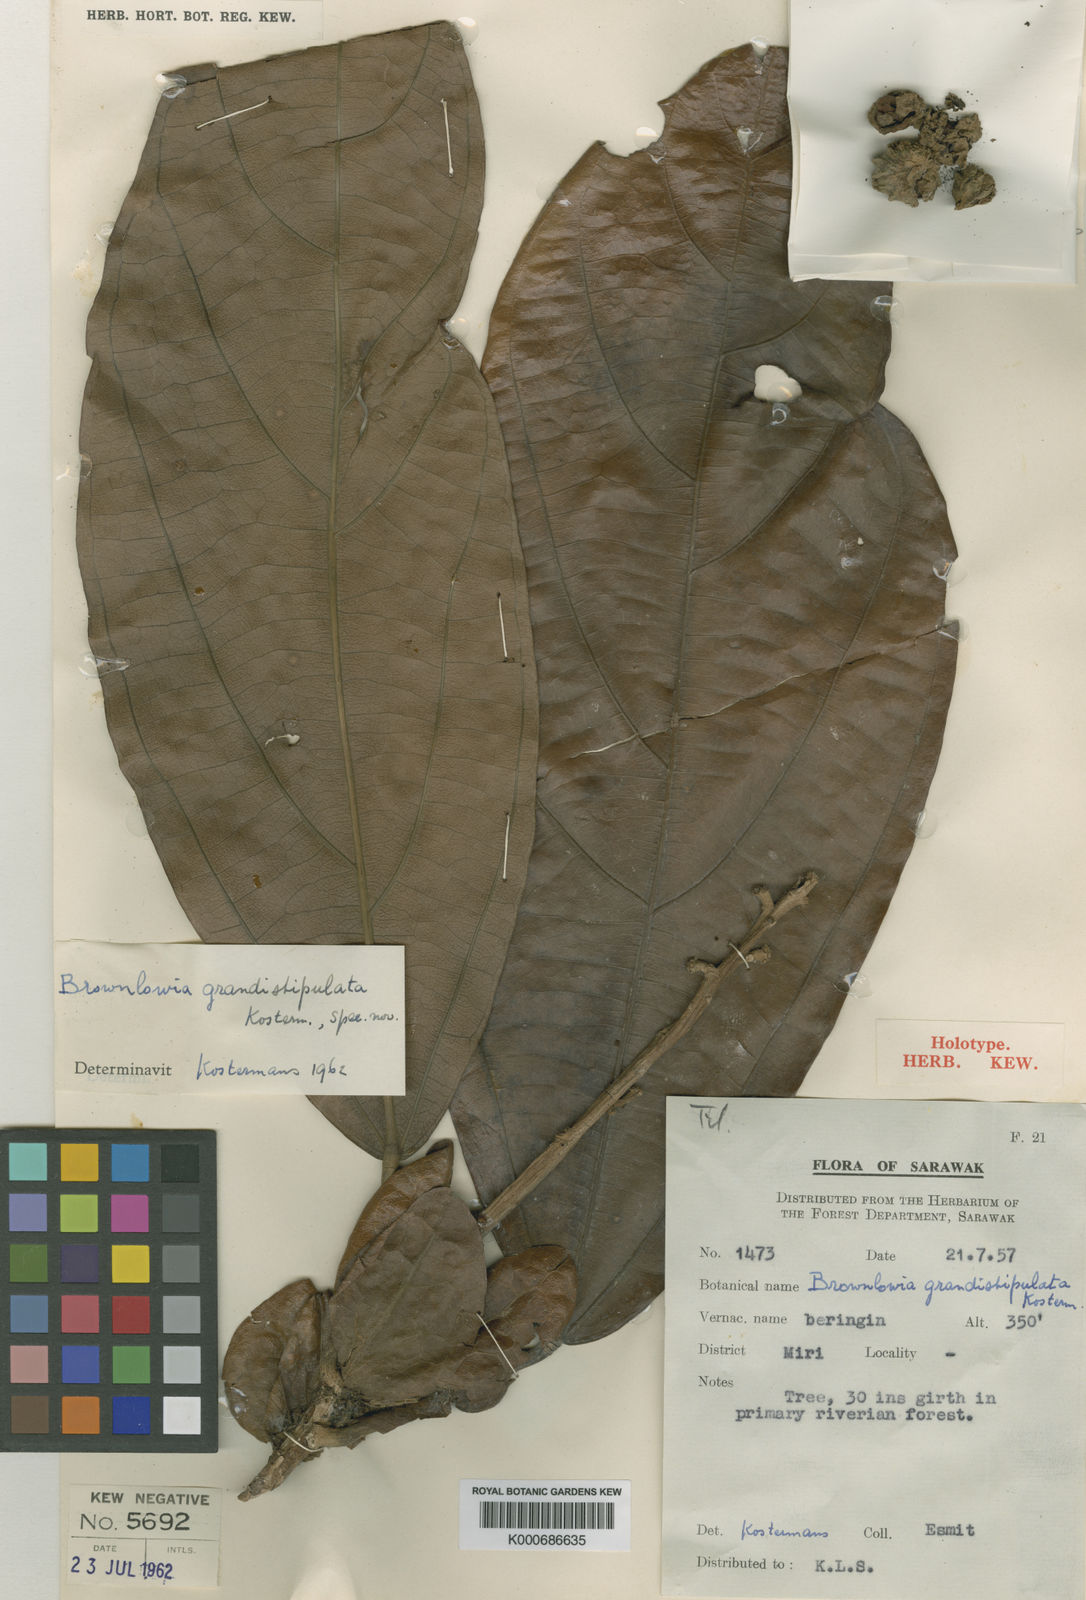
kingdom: Plantae
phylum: Tracheophyta
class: Magnoliopsida
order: Malvales
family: Malvaceae
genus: Brownlowia
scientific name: Brownlowia grandistipulata
